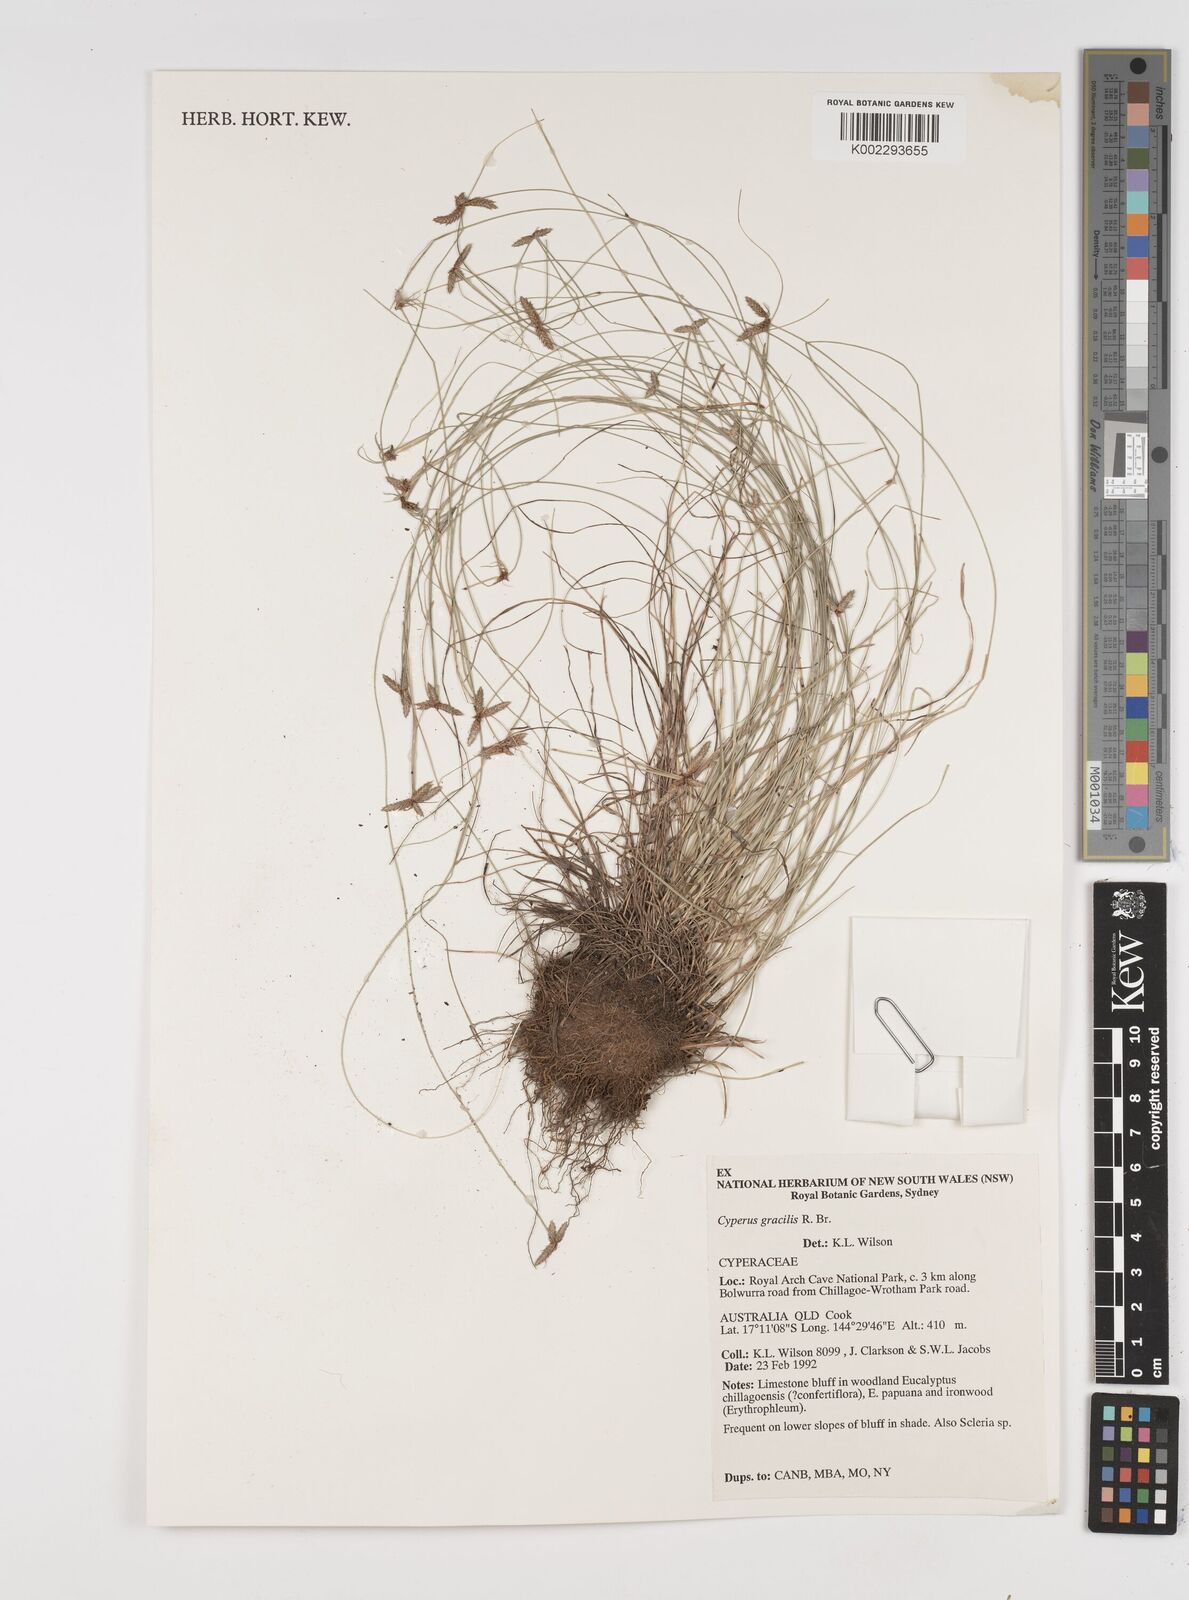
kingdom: Plantae
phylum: Tracheophyta
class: Liliopsida
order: Poales
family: Cyperaceae
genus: Cyperus
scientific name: Cyperus gracilis
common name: Slimjim flatsedge
